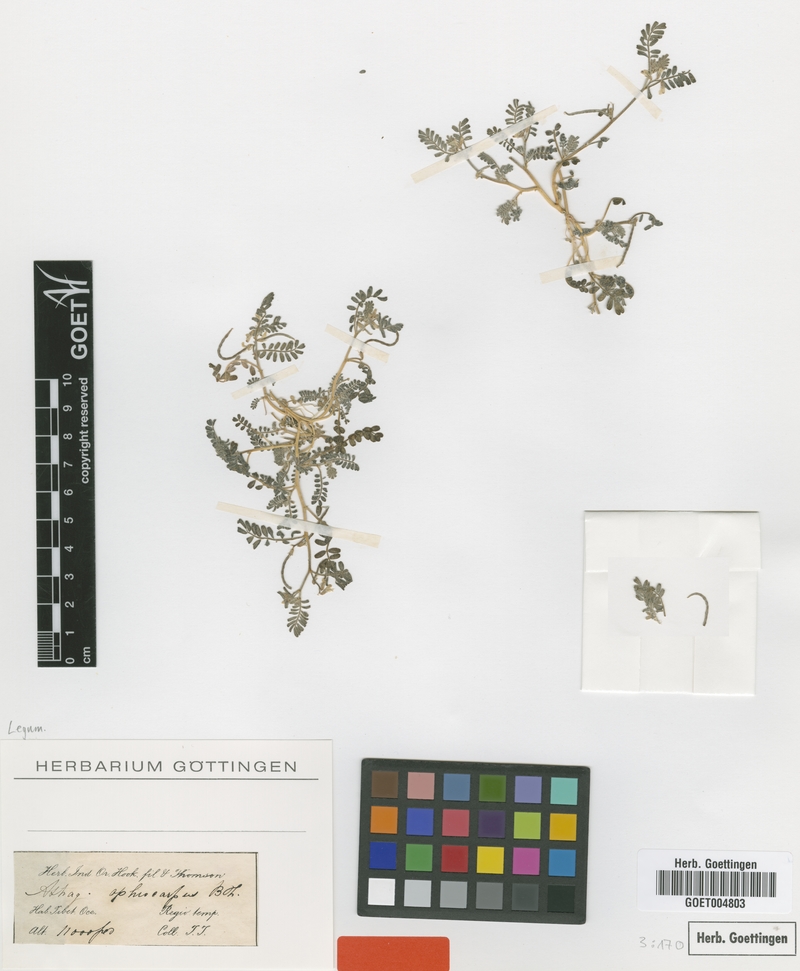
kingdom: Plantae
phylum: Tracheophyta
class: Magnoliopsida
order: Fabales
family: Fabaceae
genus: Astragalus
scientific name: Astragalus ophiocarpus
